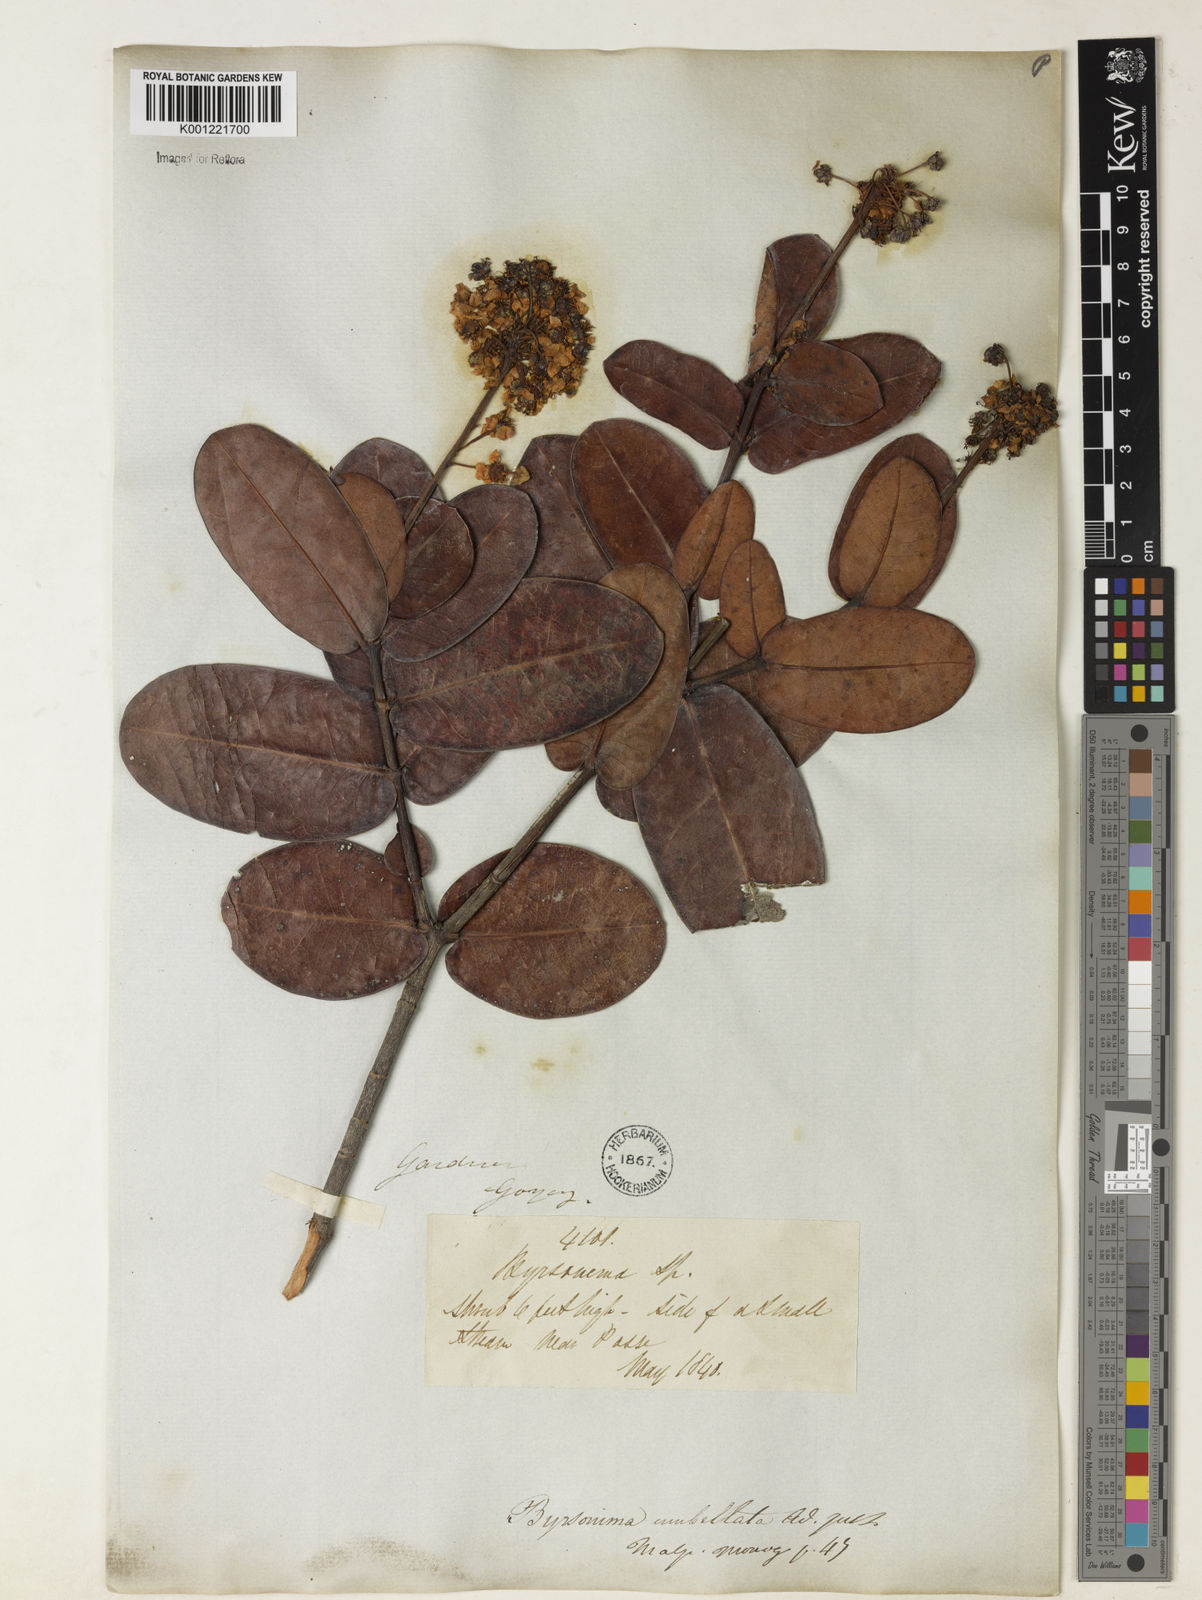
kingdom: Plantae
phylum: Tracheophyta
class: Magnoliopsida
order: Malpighiales
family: Malpighiaceae
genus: Byrsonima
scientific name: Byrsonima umbellata
